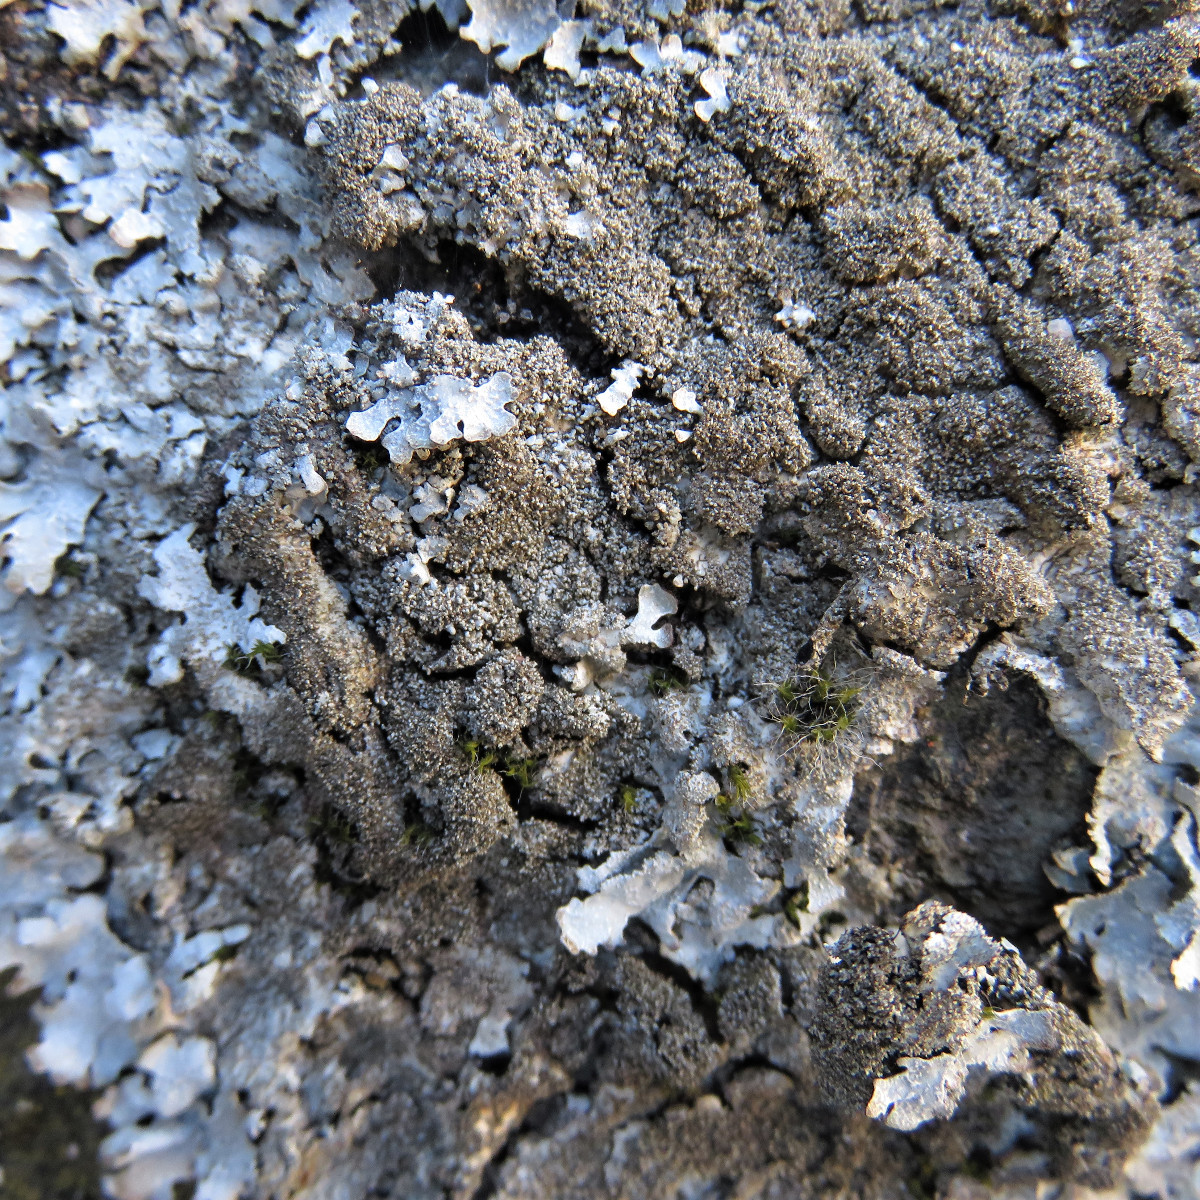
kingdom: Fungi
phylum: Ascomycota
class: Lecanoromycetes
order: Lecanorales
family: Parmeliaceae
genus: Parmelia
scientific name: Parmelia saxatilis
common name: farve-skållav
